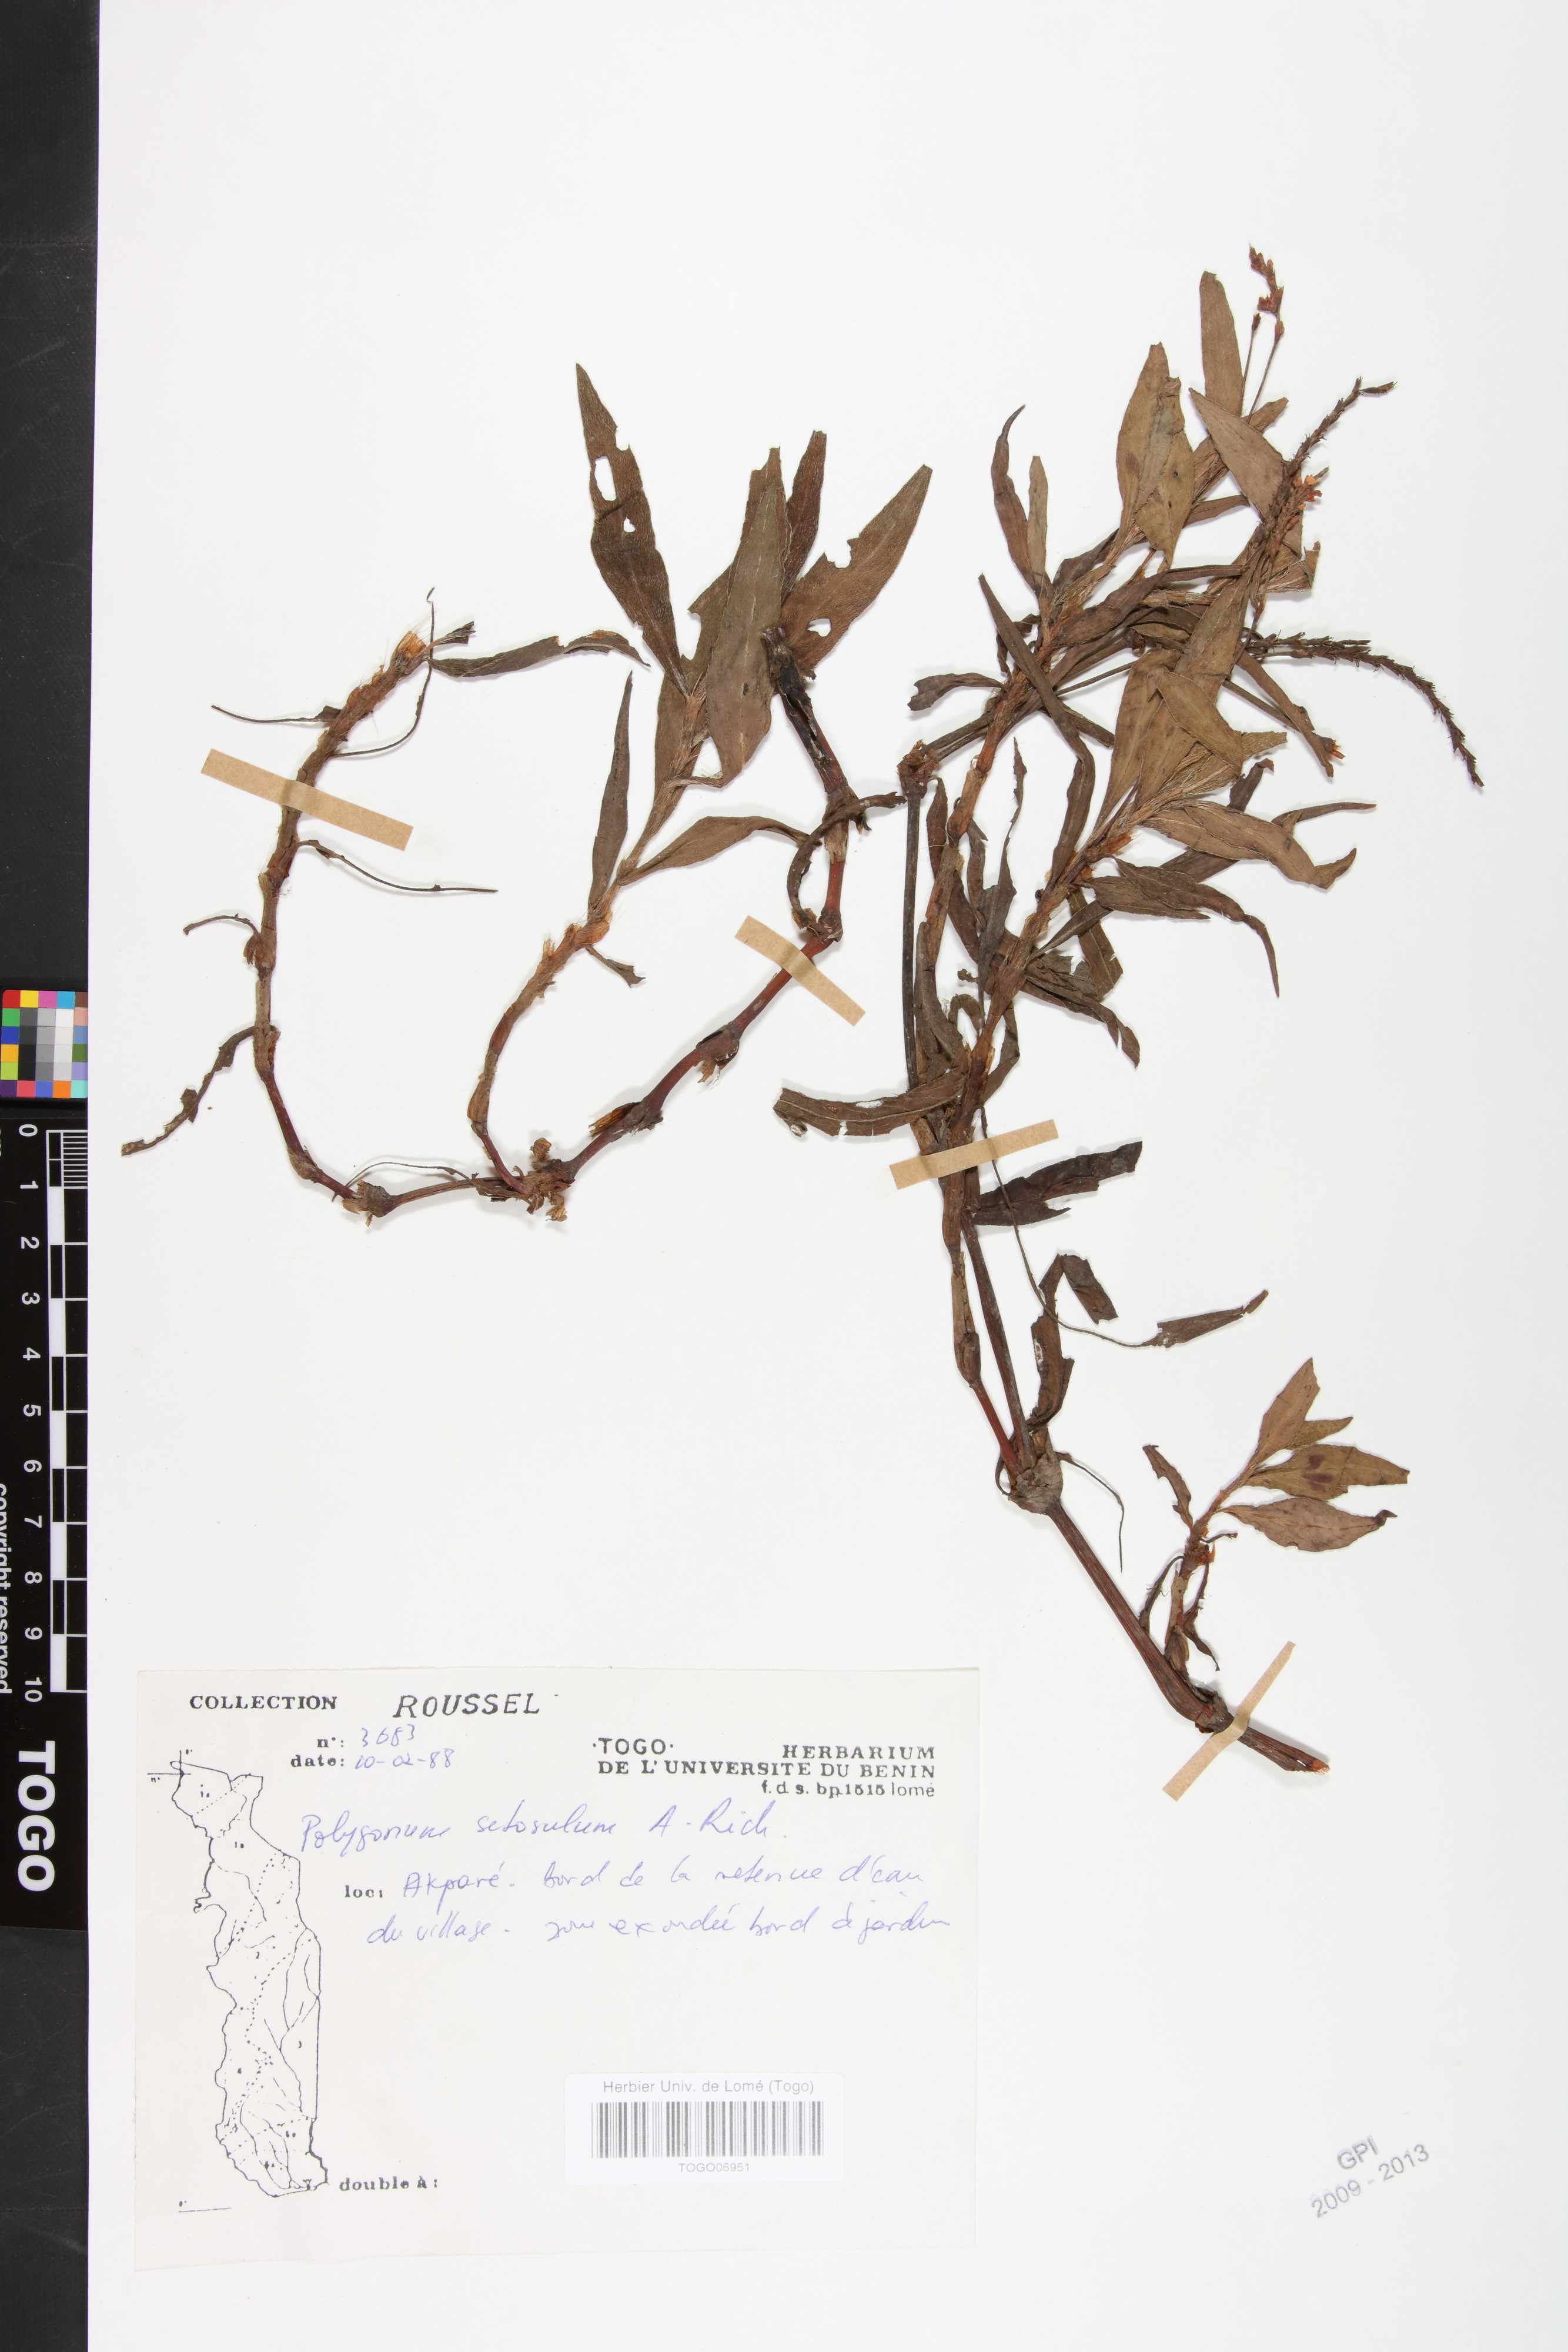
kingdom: Plantae
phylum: Tracheophyta
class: Magnoliopsida
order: Caryophyllales
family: Polygonaceae
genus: Persicaria
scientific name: Persicaria setosula
